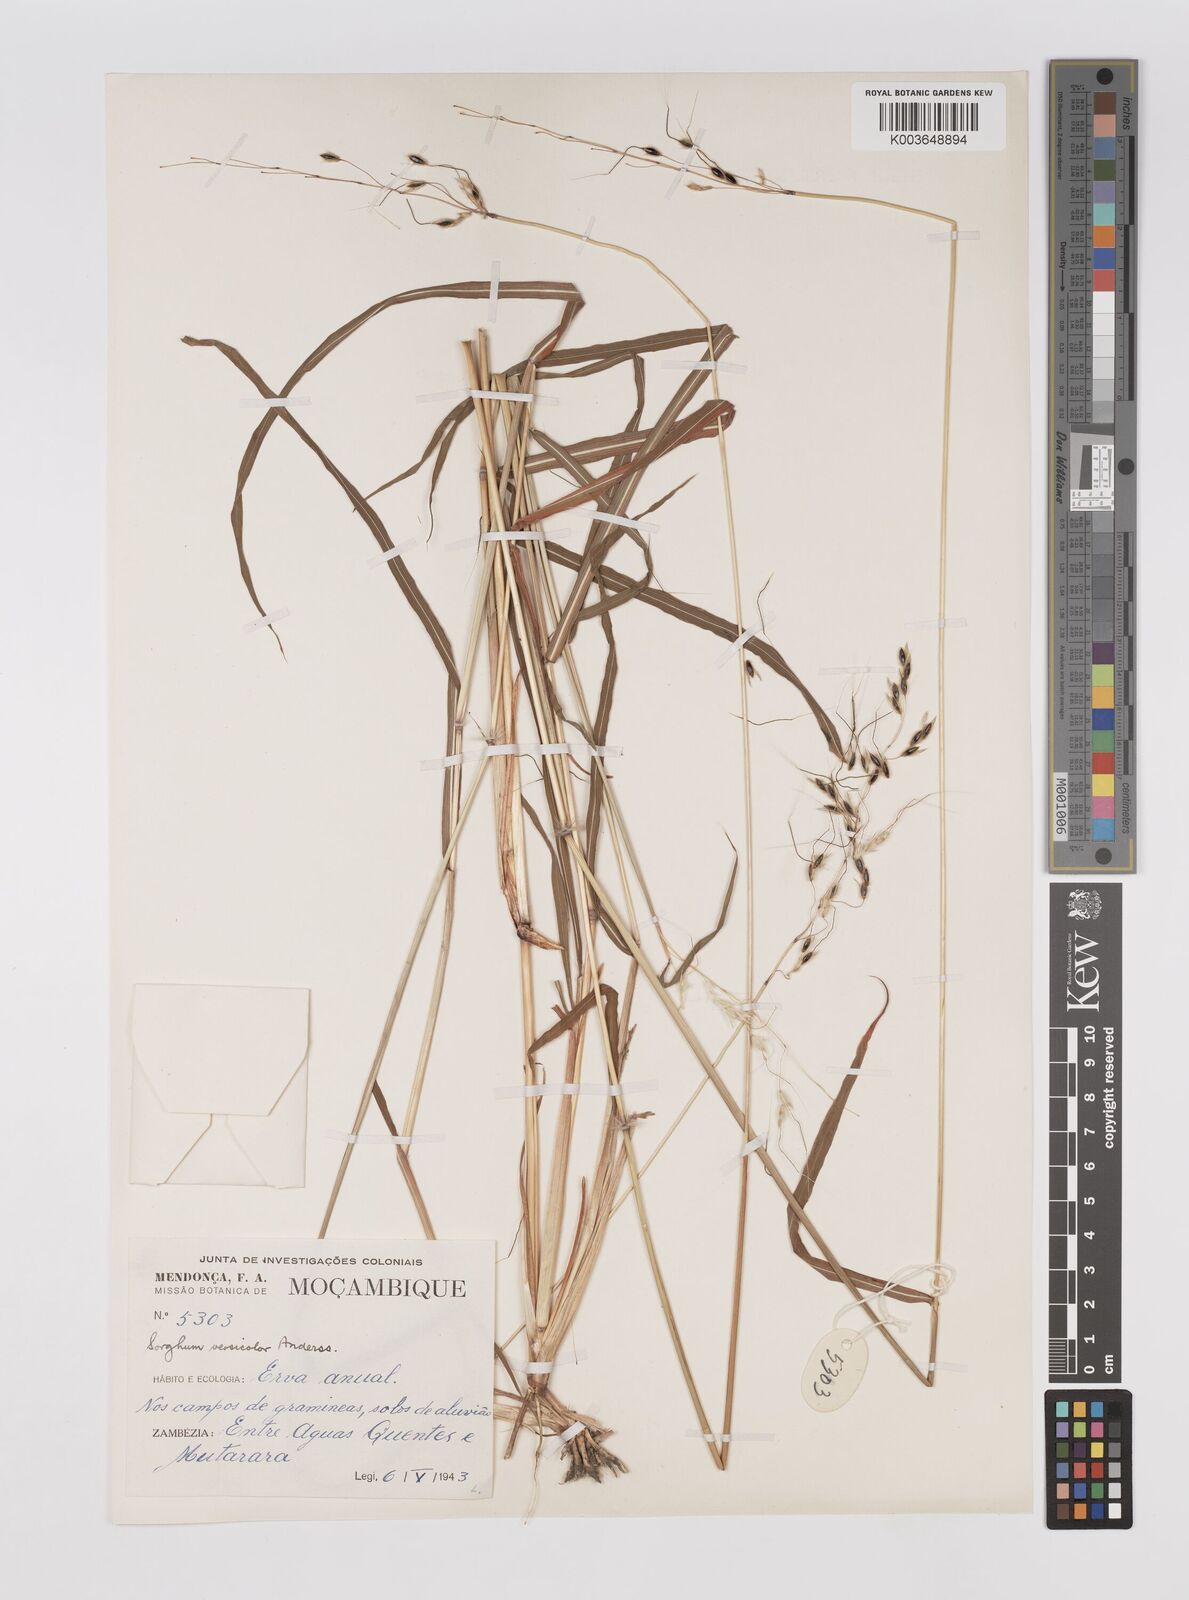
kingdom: Plantae
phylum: Tracheophyta
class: Liliopsida
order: Poales
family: Poaceae
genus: Sarga
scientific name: Sarga versicolor
